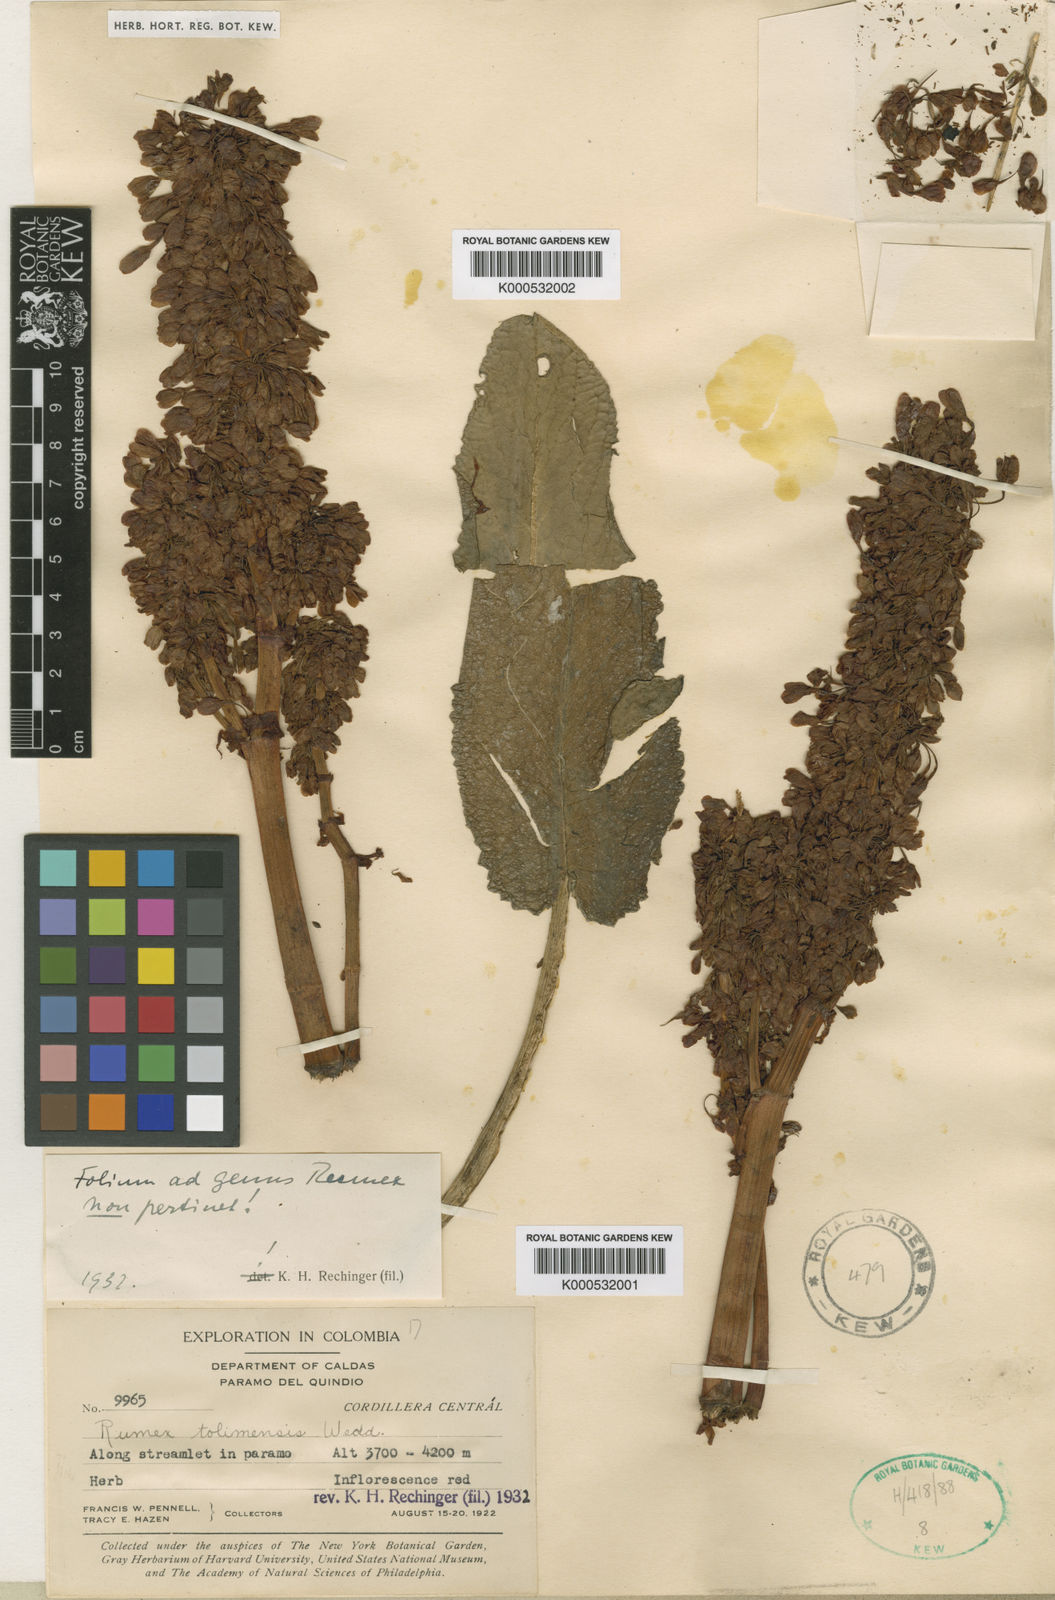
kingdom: Plantae
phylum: Tracheophyta
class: Magnoliopsida
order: Caryophyllales
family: Polygonaceae
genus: Rumex
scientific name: Rumex tolimensis
